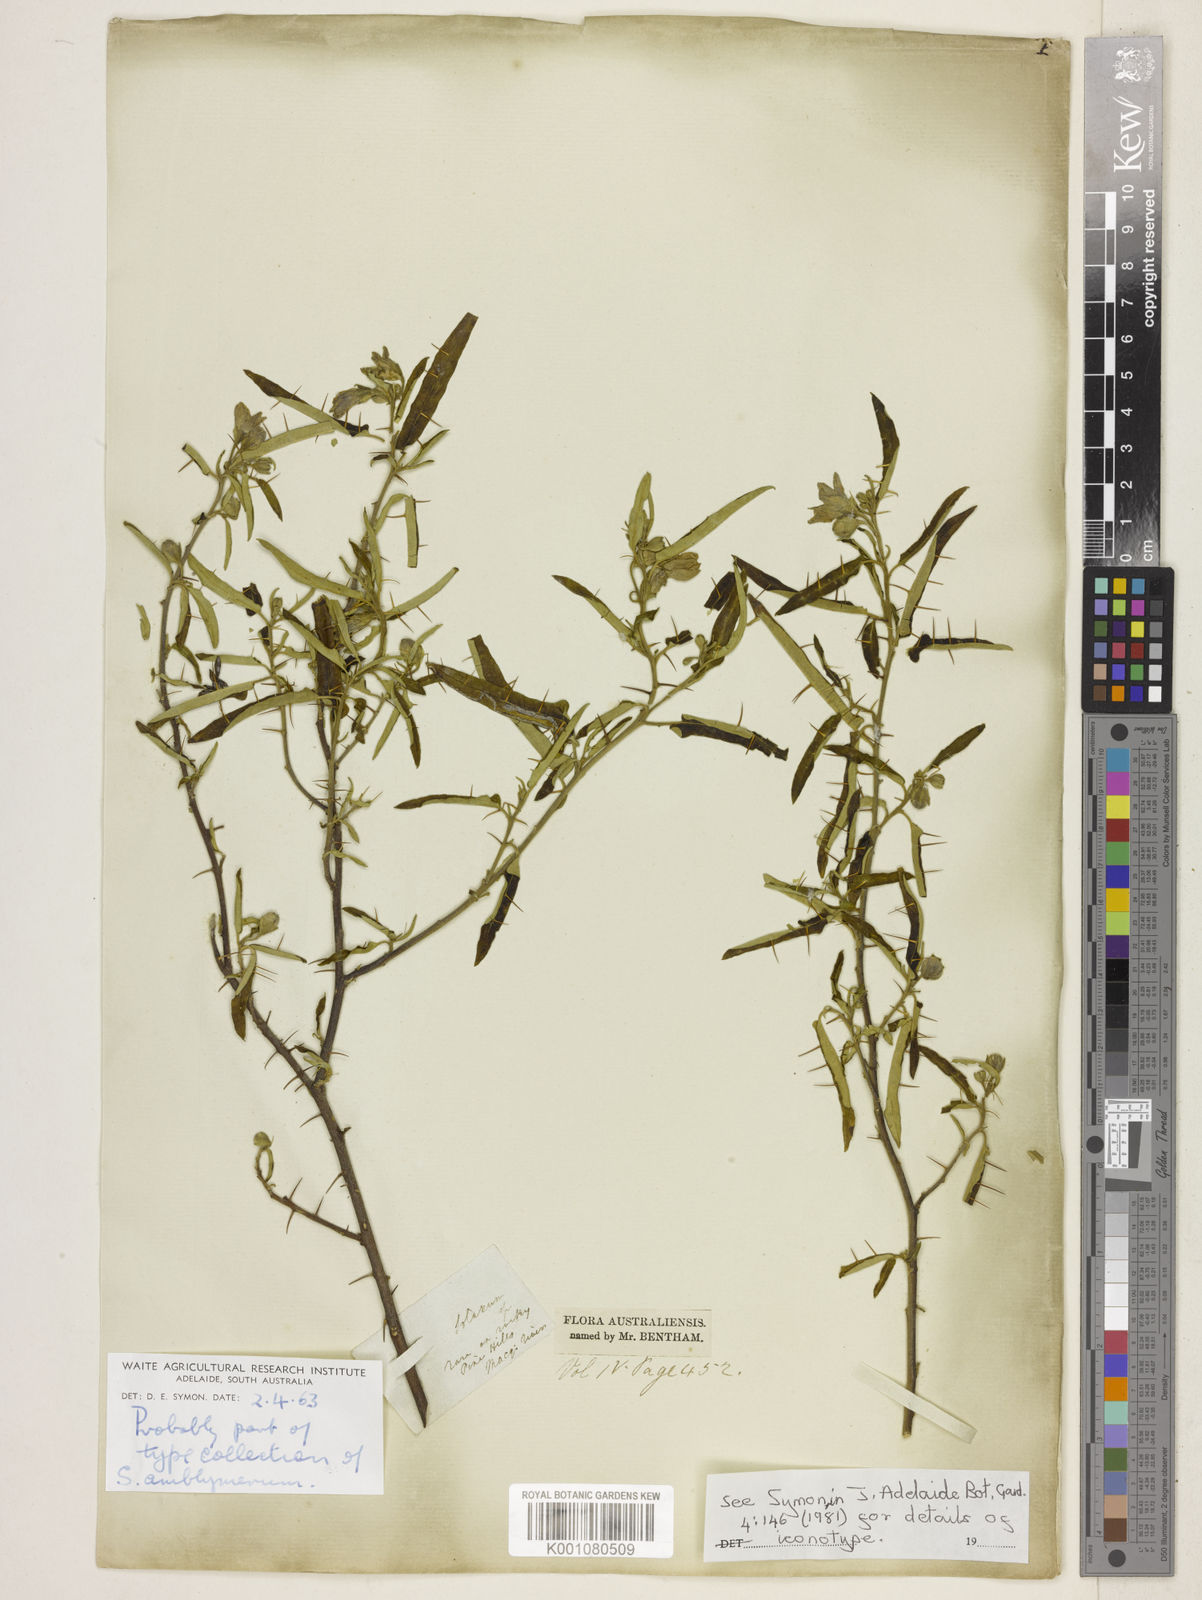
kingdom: Plantae
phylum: Tracheophyta
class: Magnoliopsida
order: Solanales
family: Solanaceae
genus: Solanum
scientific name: Solanum elegans
